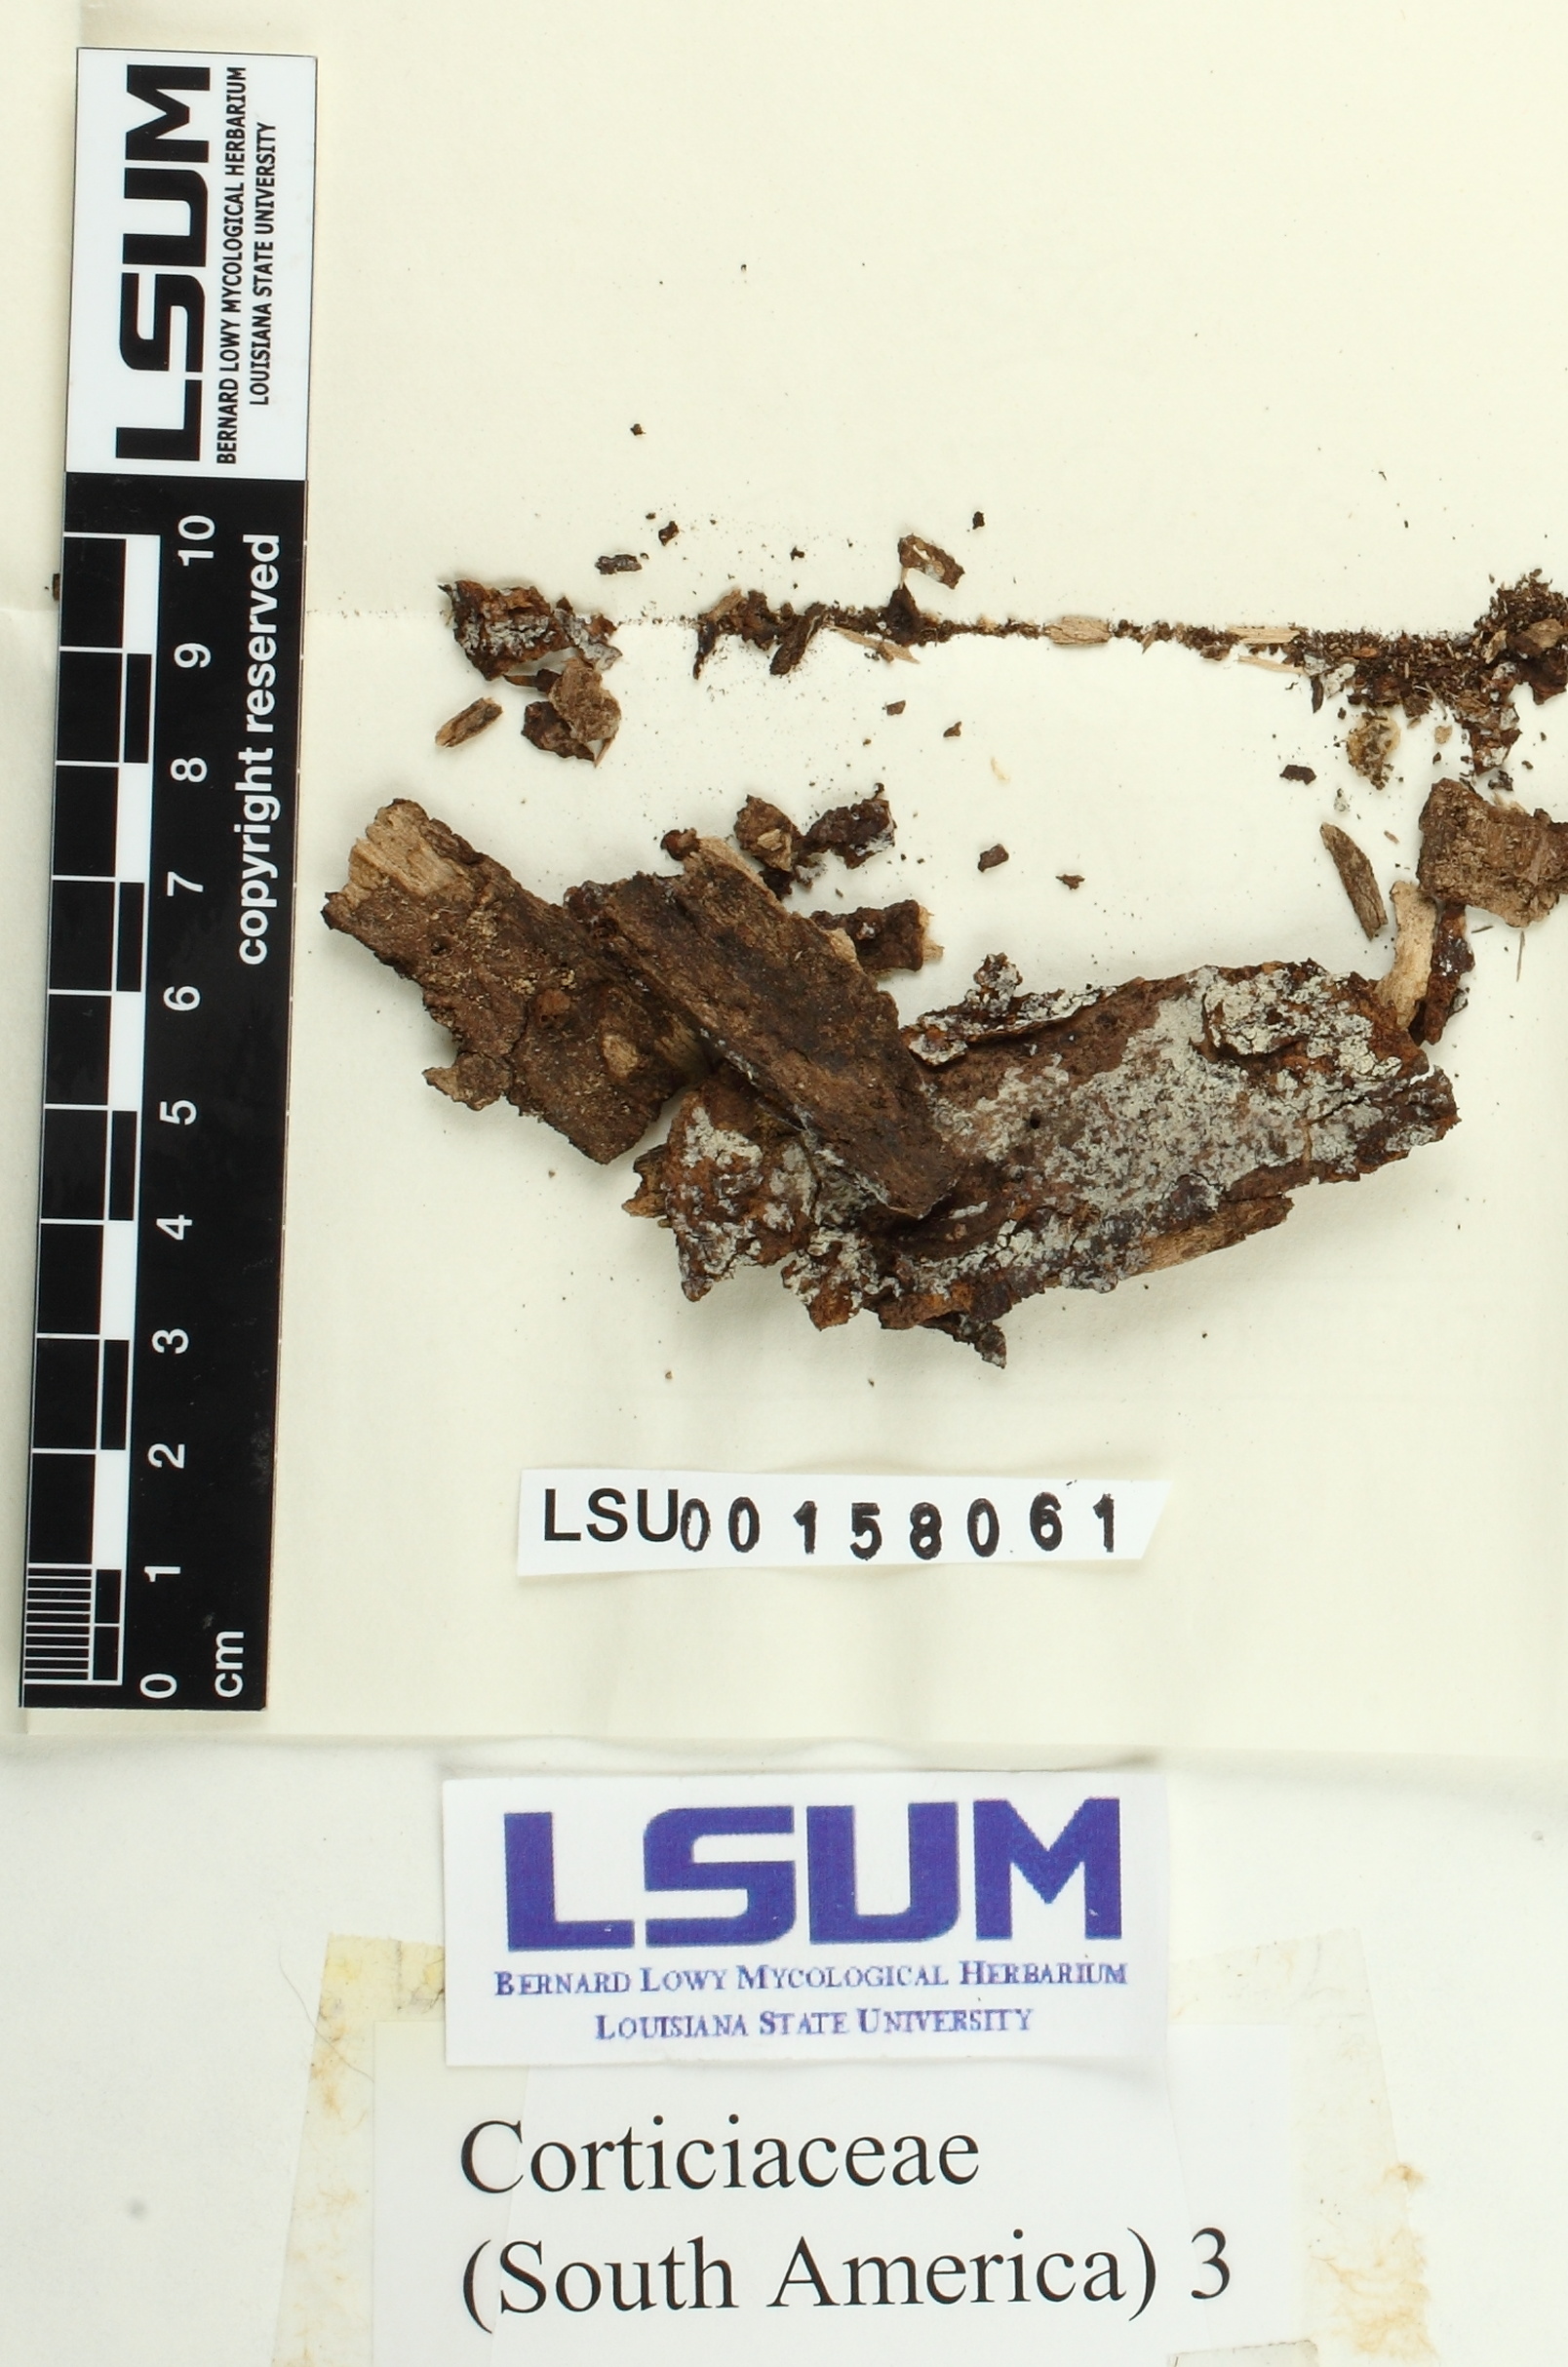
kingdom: Fungi
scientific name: Fungi
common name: Fungi
